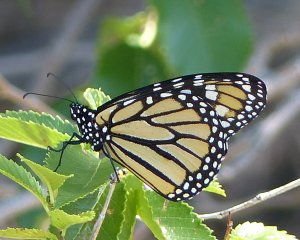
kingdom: Animalia
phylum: Arthropoda
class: Insecta
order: Lepidoptera
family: Nymphalidae
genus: Danaus
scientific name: Danaus plexippus
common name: Monarch
